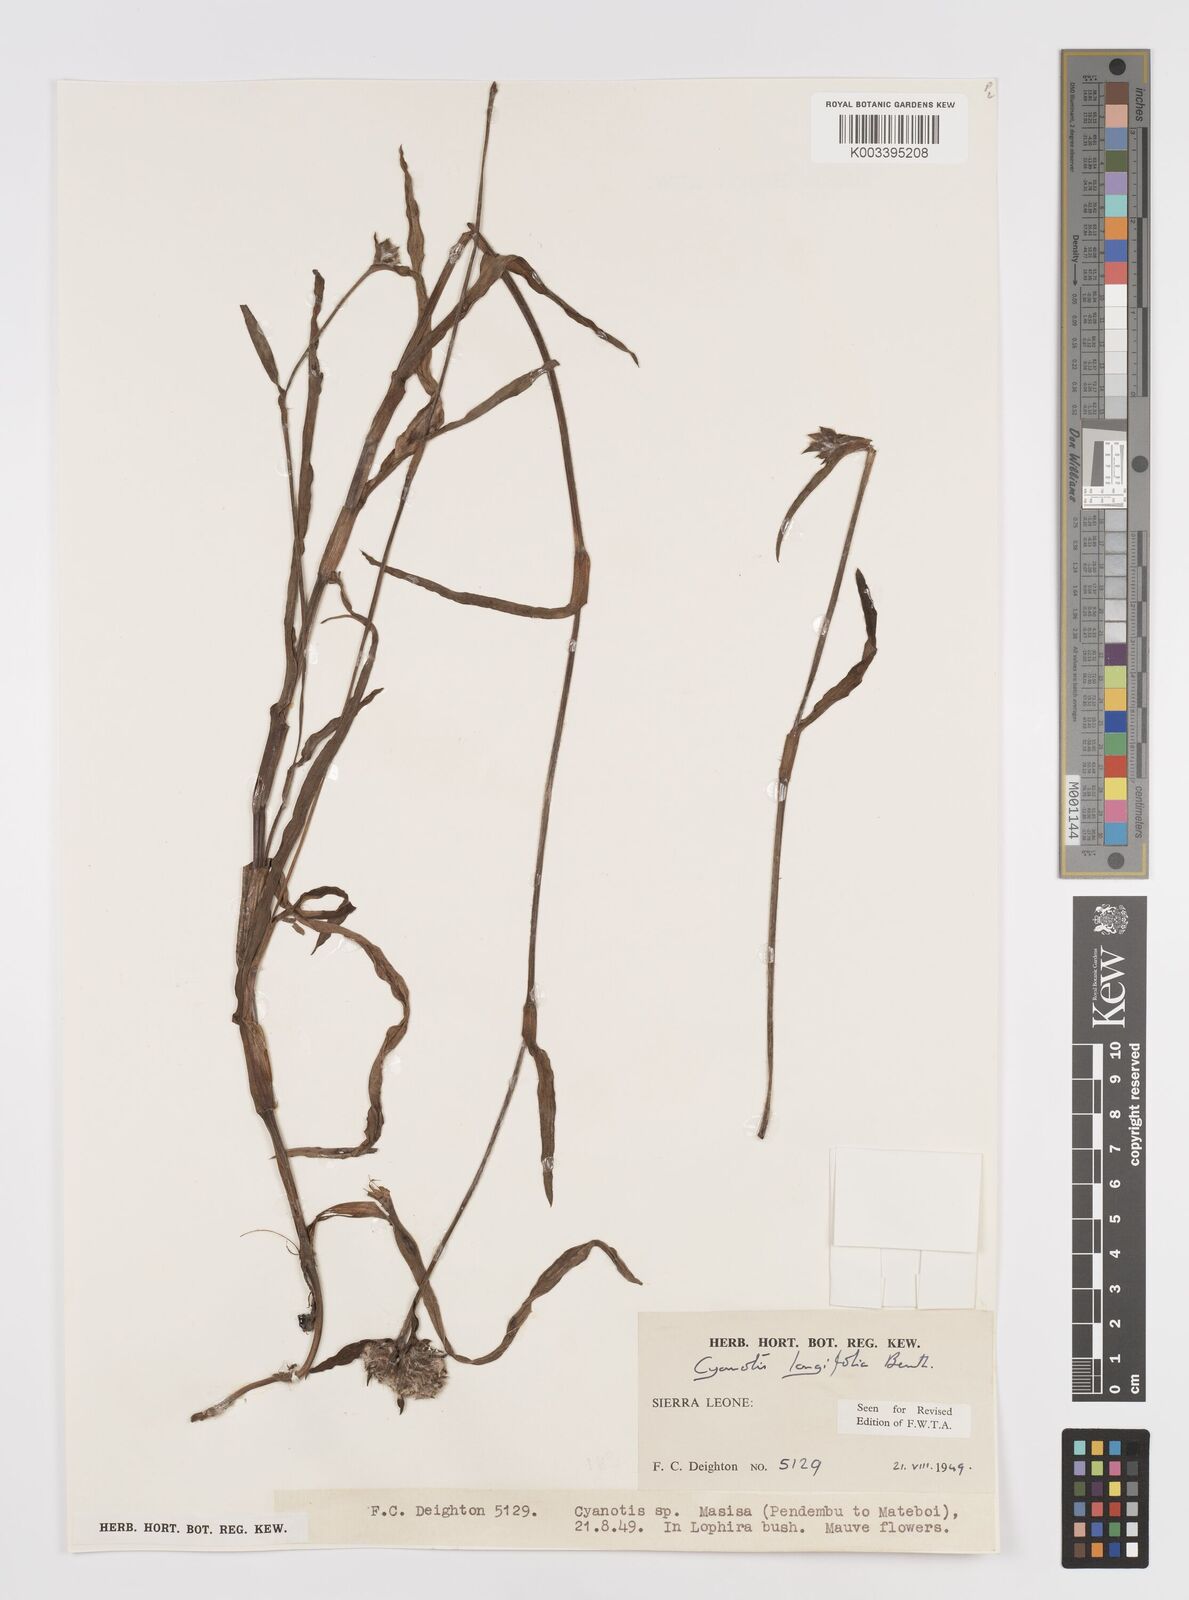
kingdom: Plantae
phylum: Tracheophyta
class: Liliopsida
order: Commelinales
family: Commelinaceae
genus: Cyanotis
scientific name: Cyanotis
